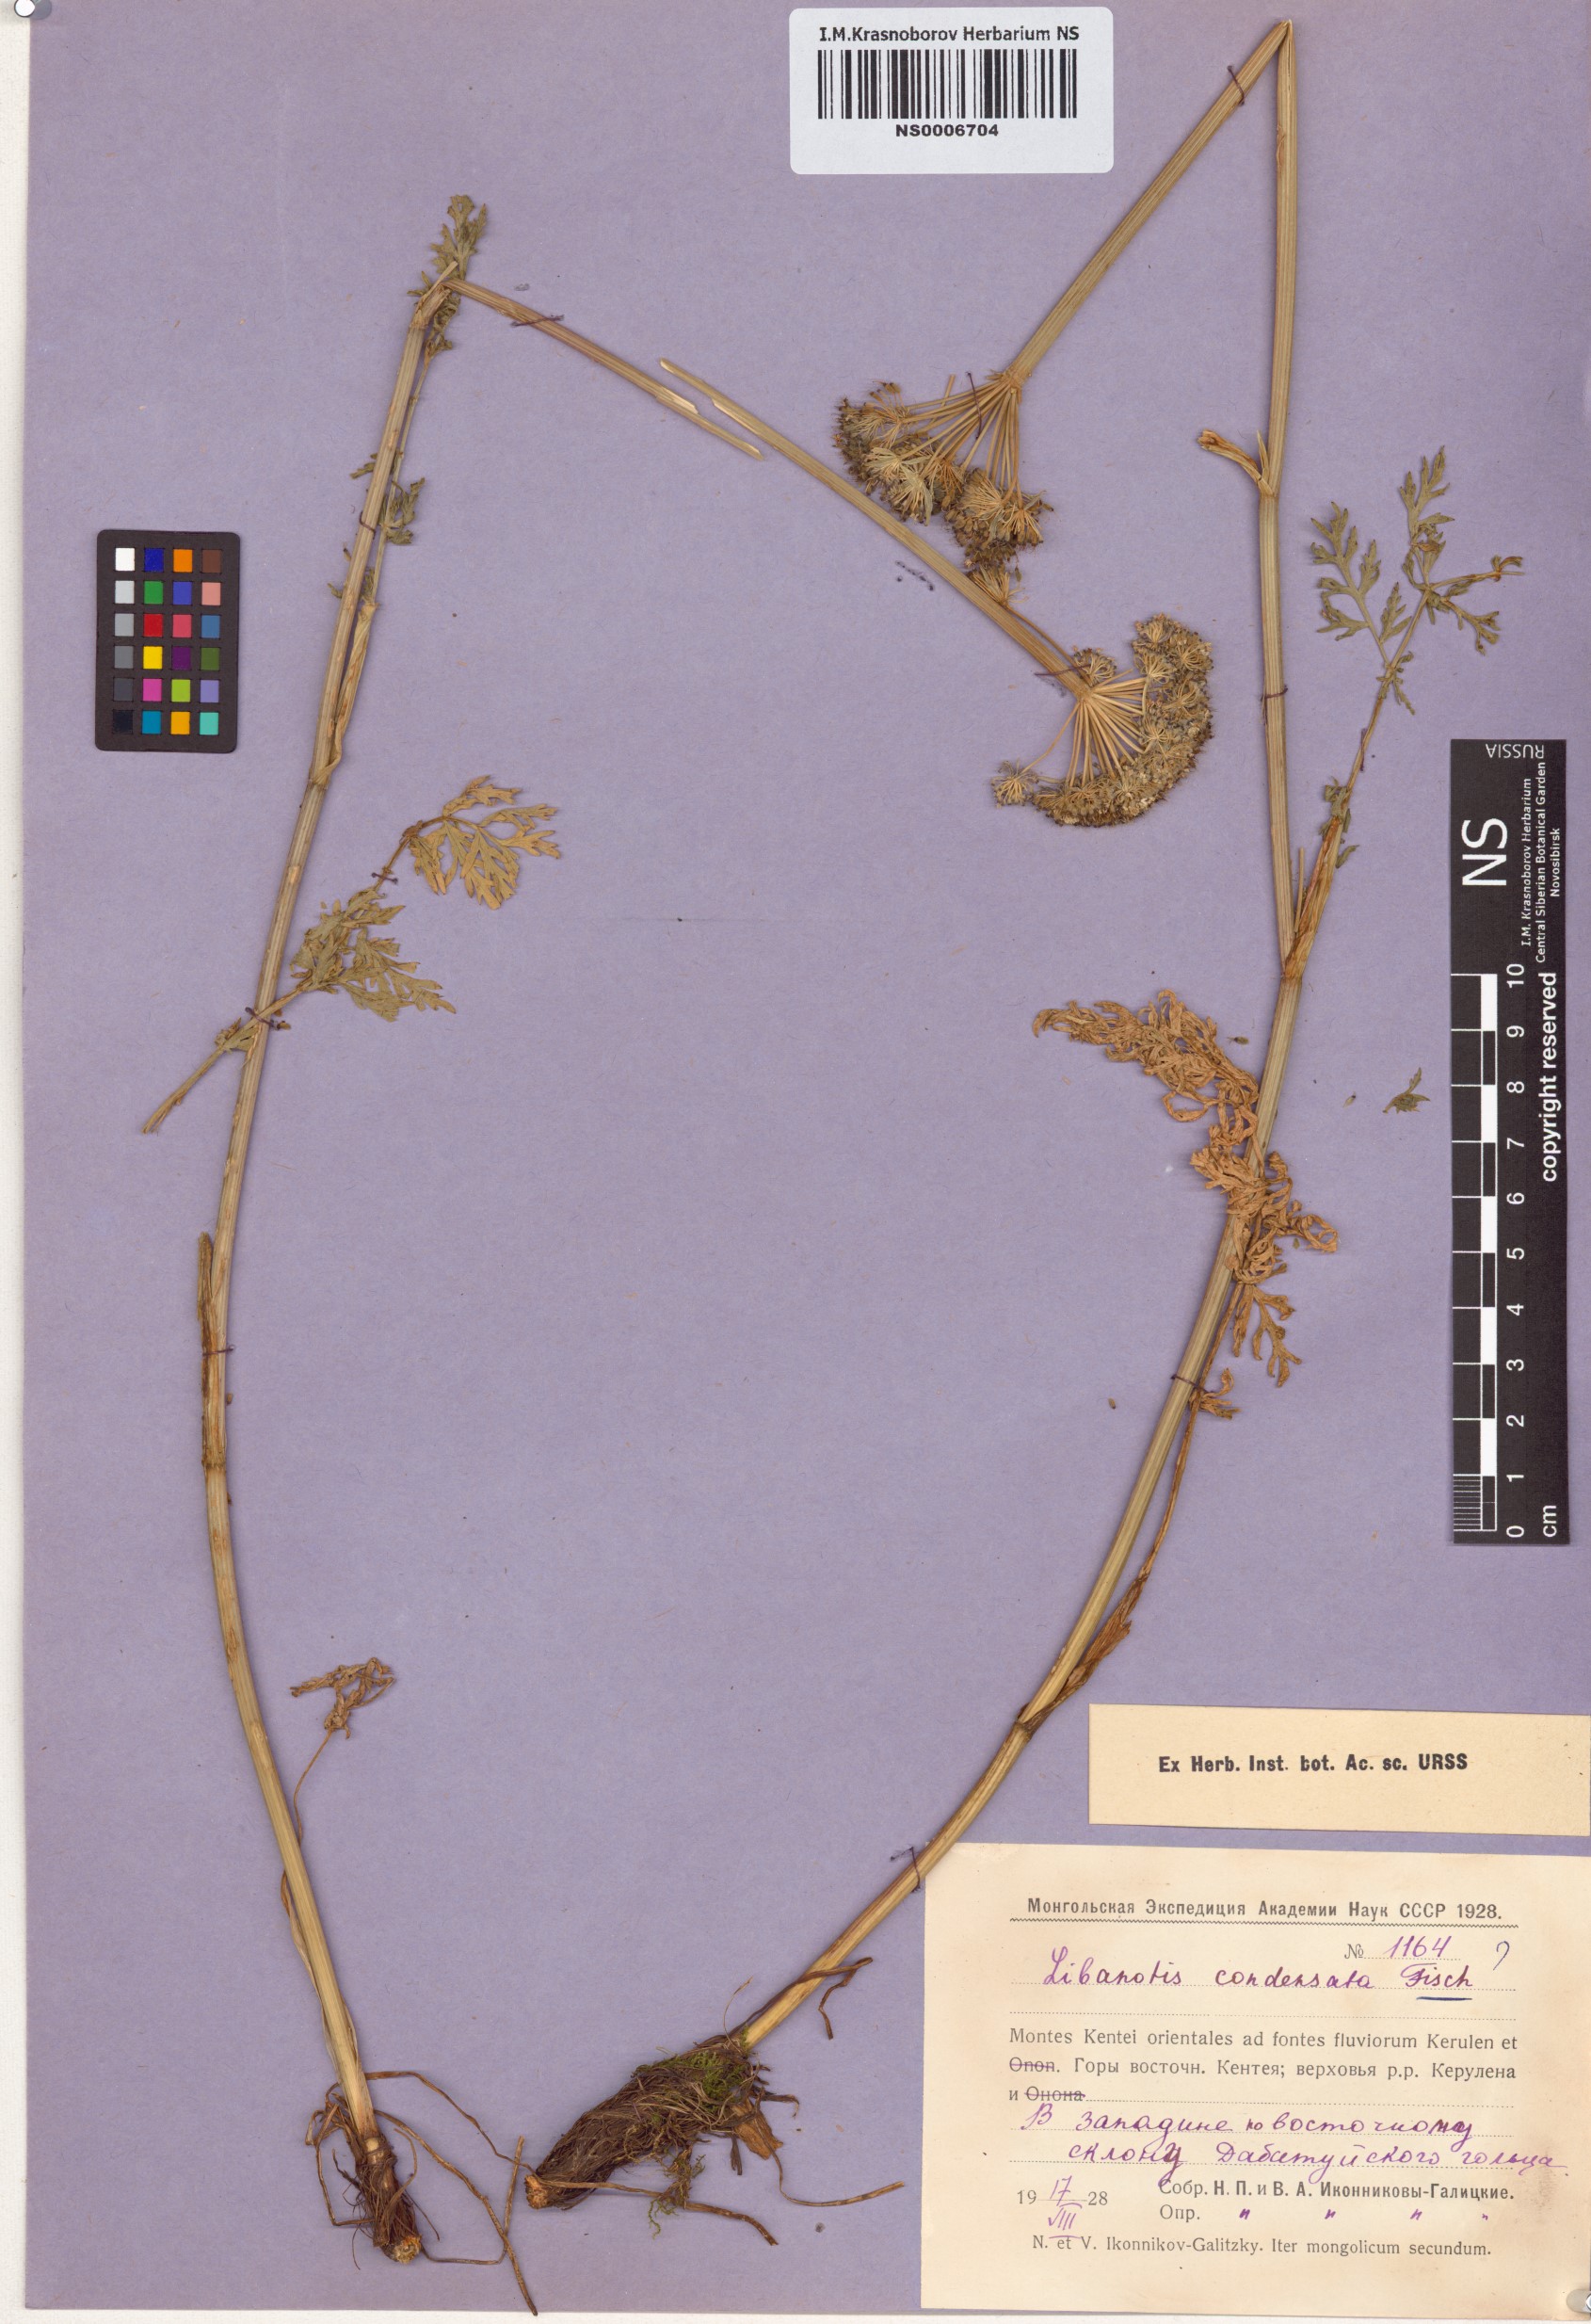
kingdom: Plantae
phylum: Tracheophyta
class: Magnoliopsida
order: Apiales
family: Apiaceae
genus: Seseli
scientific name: Seseli condensatum
